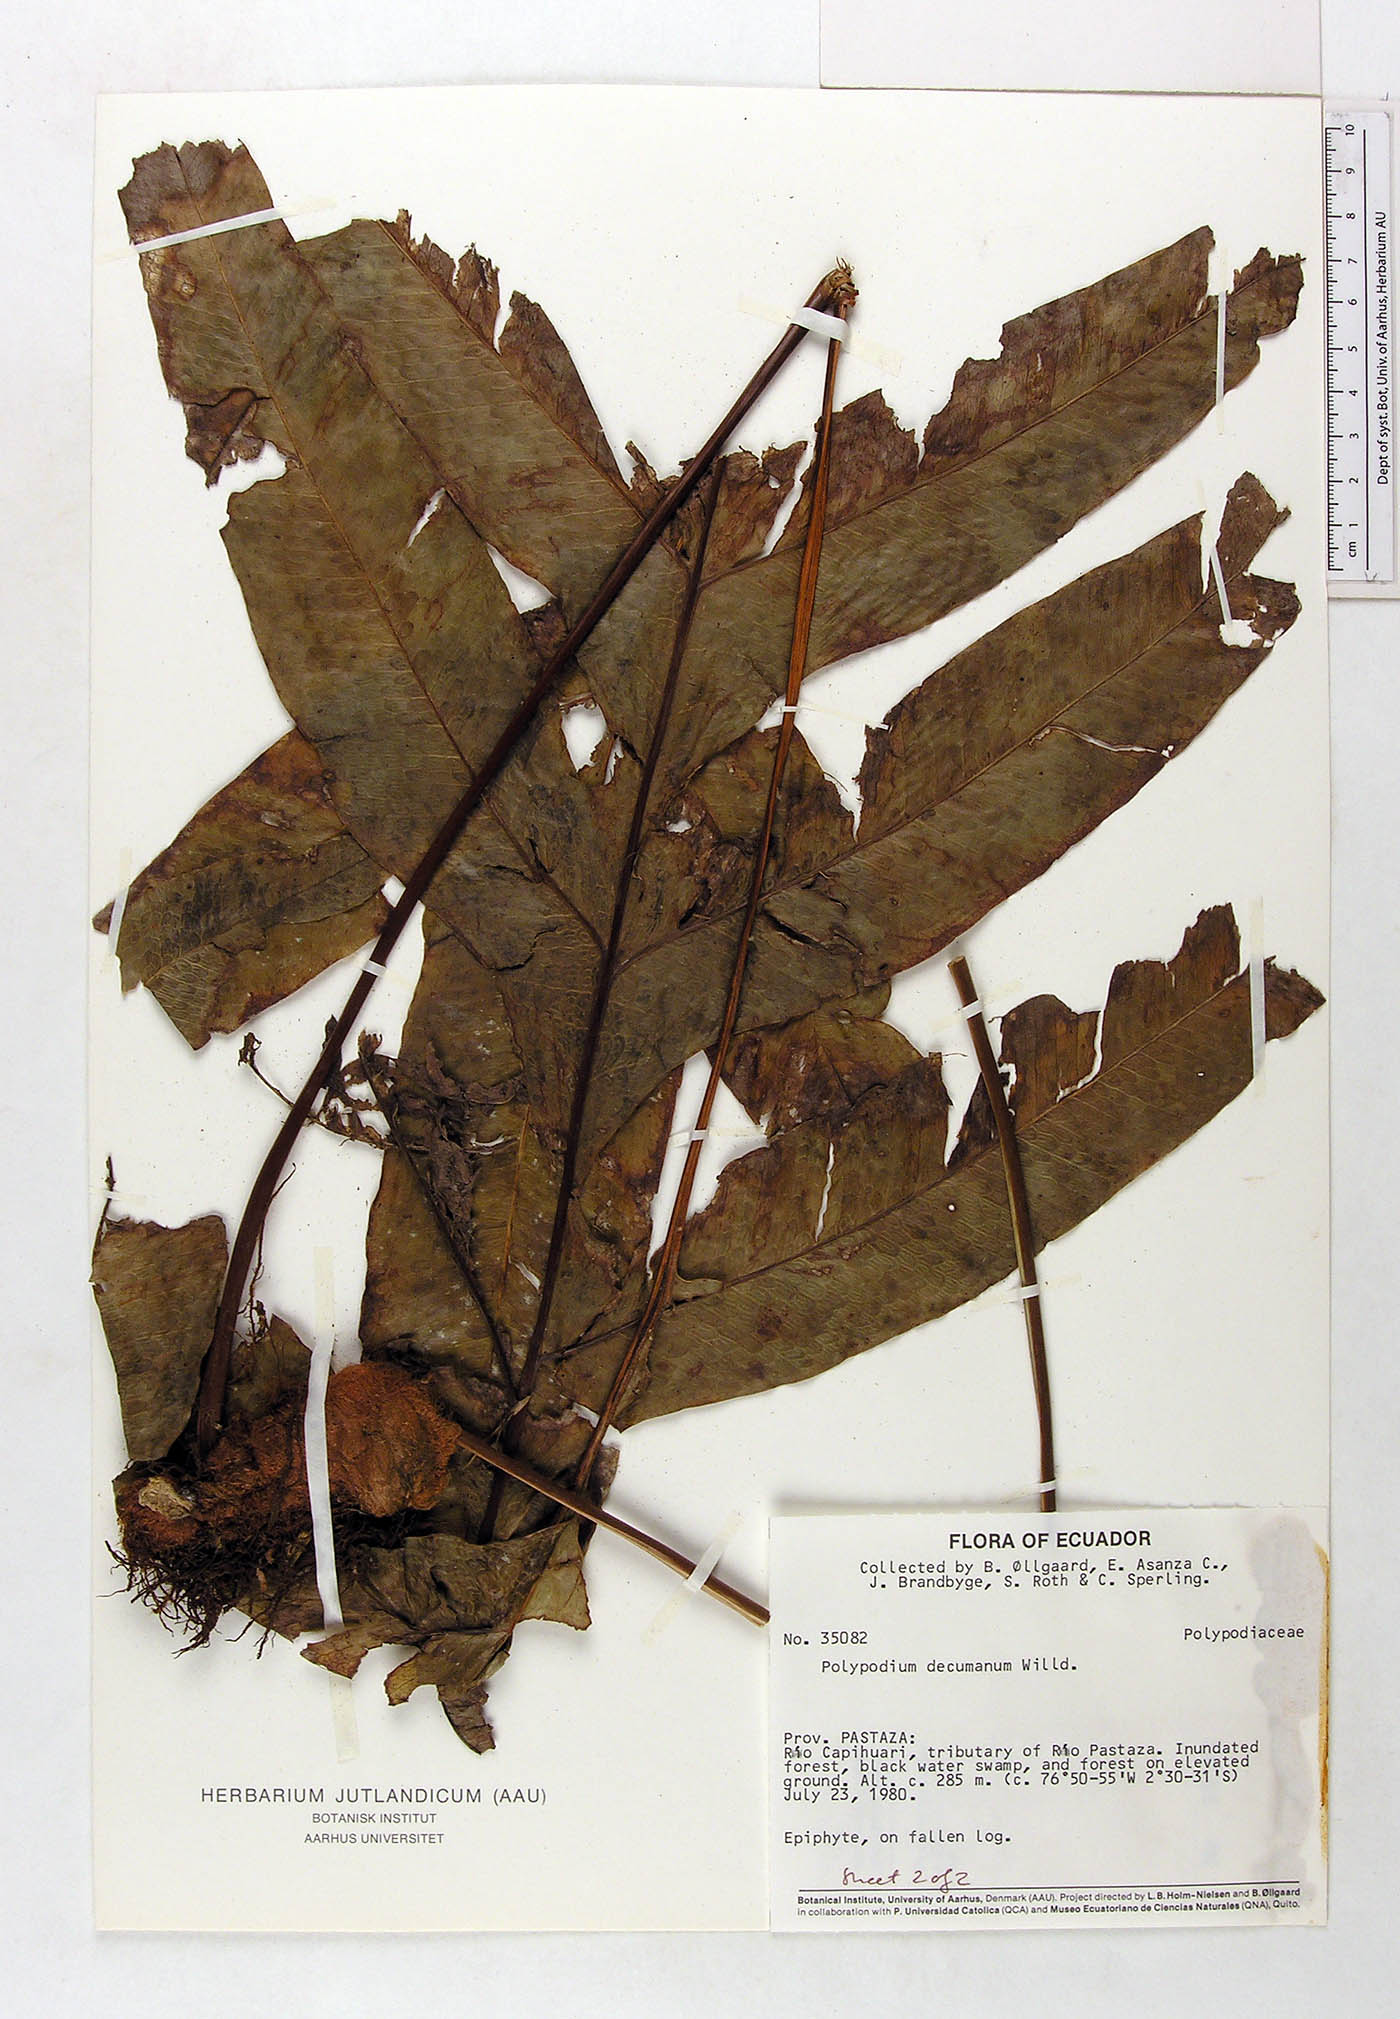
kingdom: Plantae
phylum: Tracheophyta
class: Polypodiopsida
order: Polypodiales
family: Polypodiaceae
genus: Phlebodium
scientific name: Phlebodium decumanum
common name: Golden polypod
